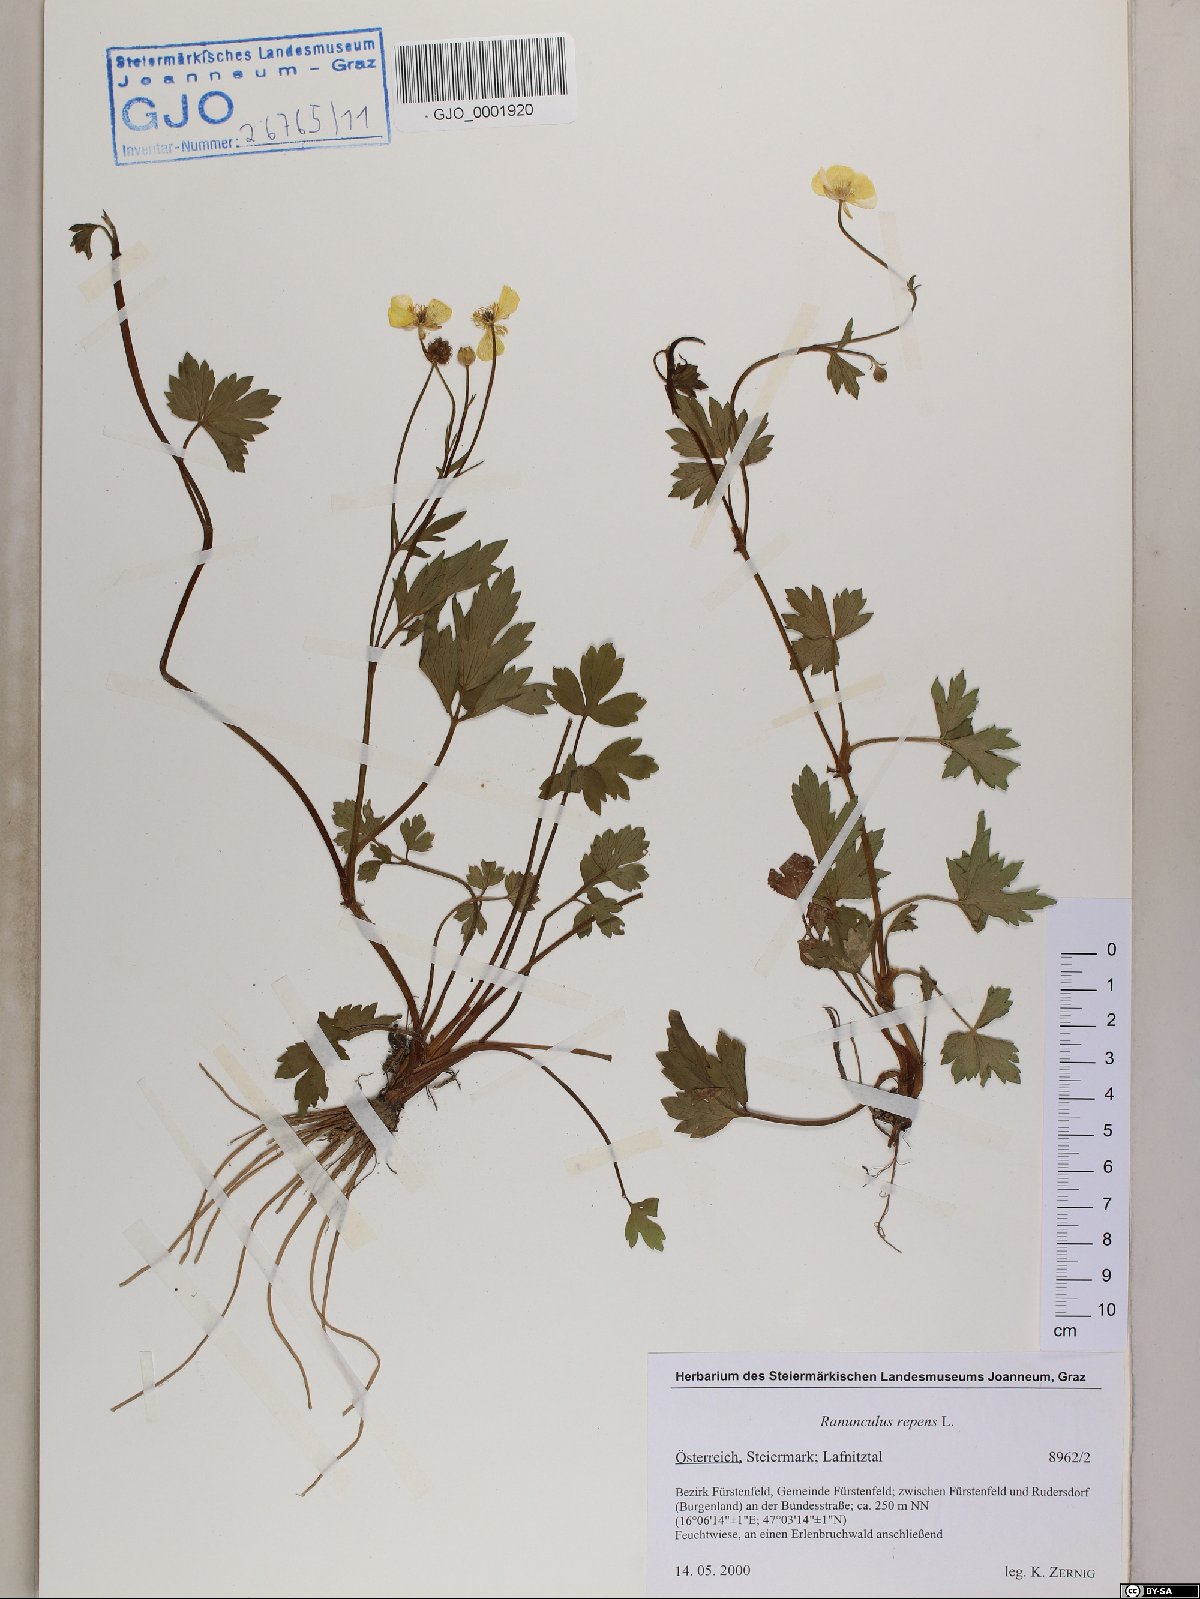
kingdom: Plantae
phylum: Tracheophyta
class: Magnoliopsida
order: Ranunculales
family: Ranunculaceae
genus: Ranunculus
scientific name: Ranunculus repens
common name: Creeping buttercup
